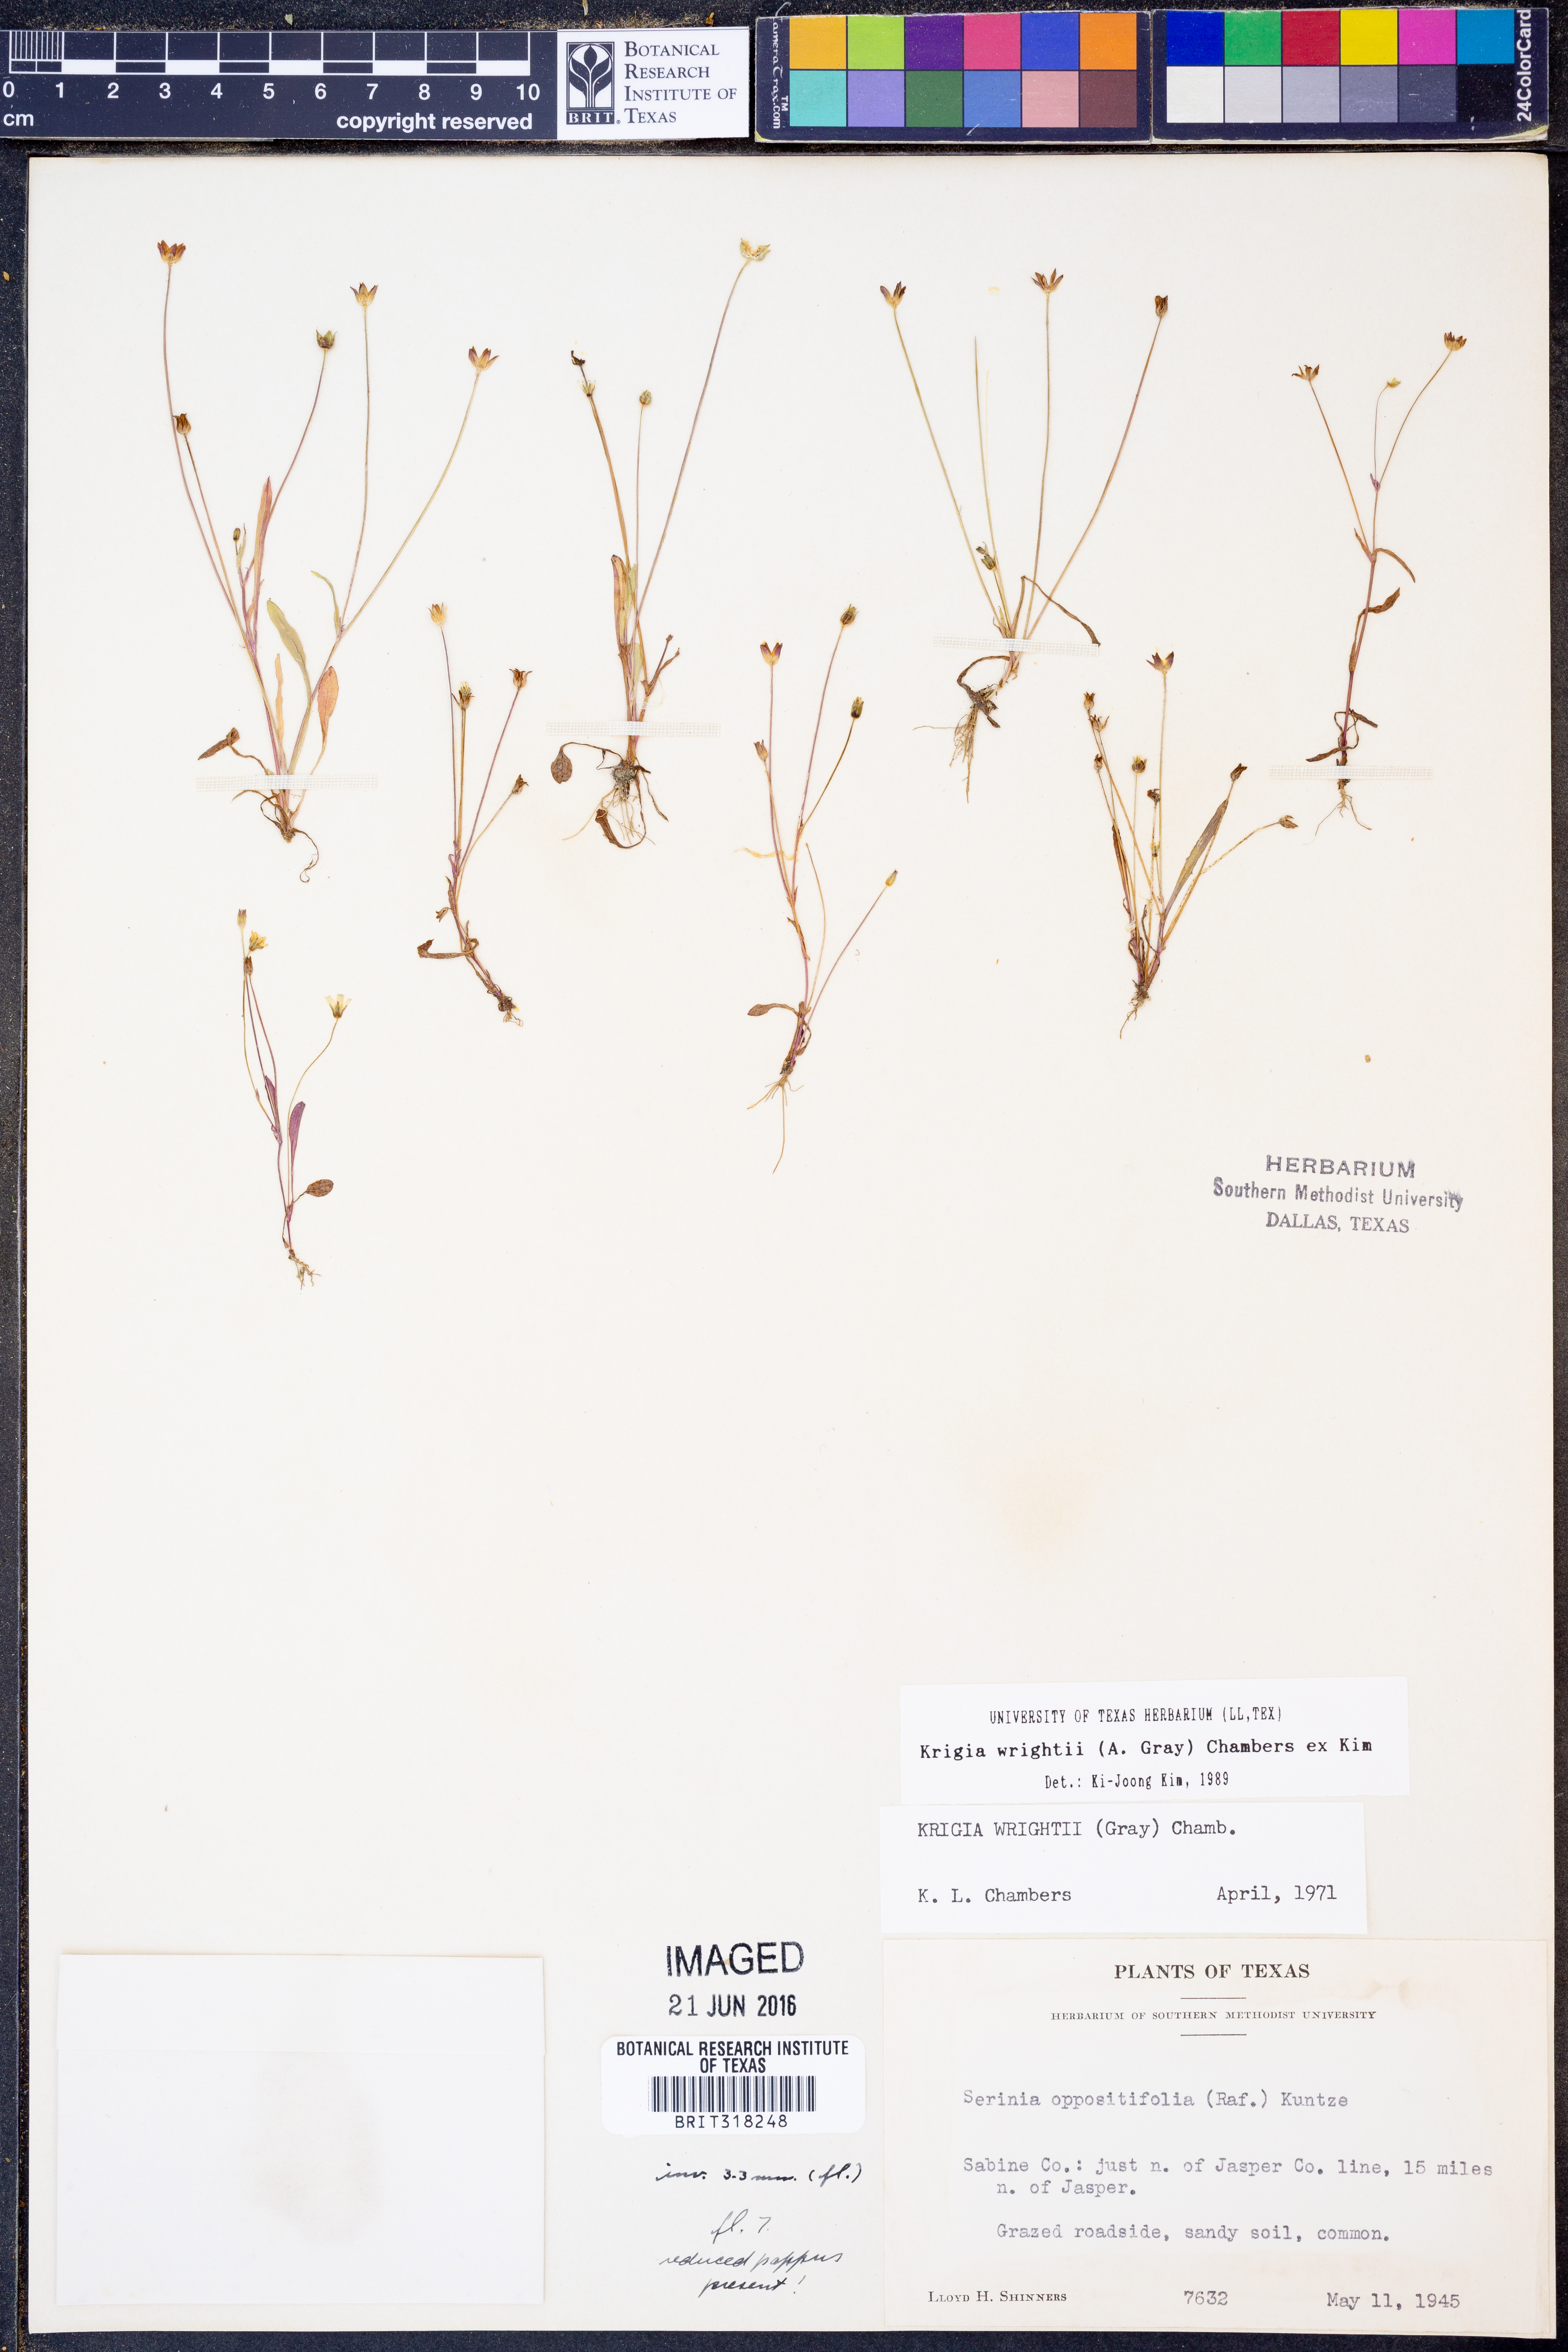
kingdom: Plantae
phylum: Tracheophyta
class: Magnoliopsida
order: Asterales
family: Asteraceae
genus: Krigia
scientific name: Krigia wrightii
